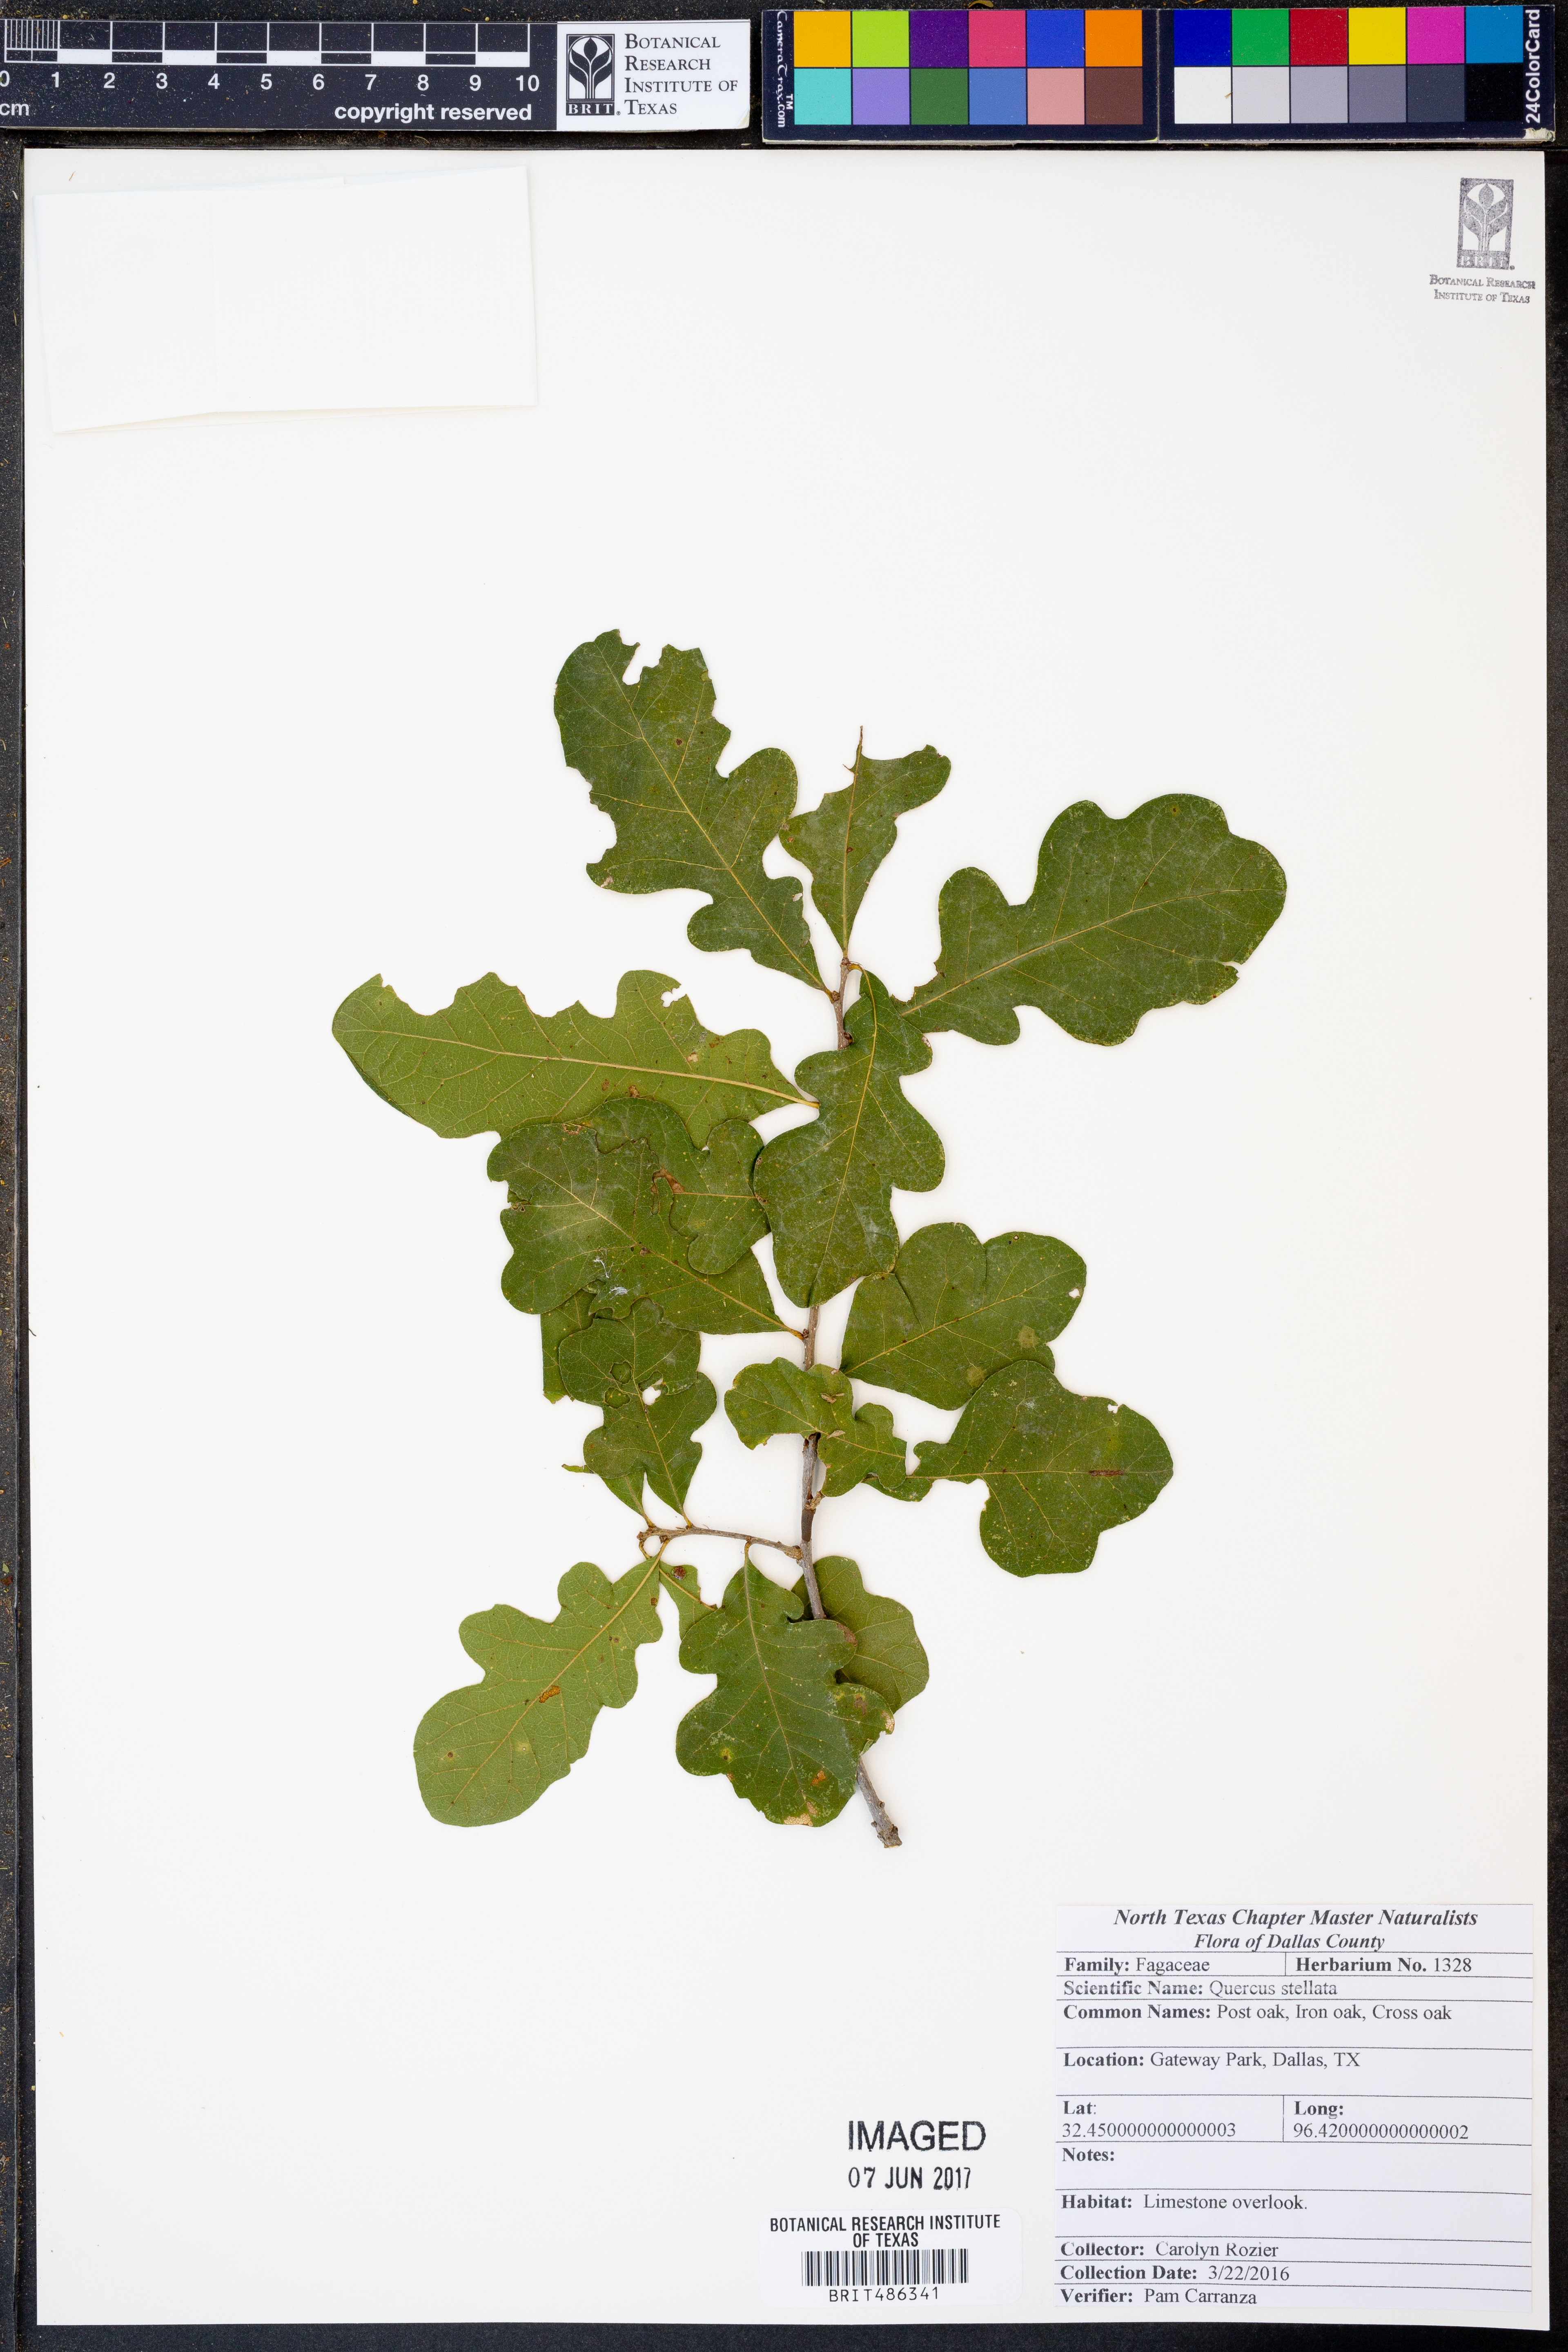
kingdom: Plantae
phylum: Tracheophyta
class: Magnoliopsida
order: Fagales
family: Fagaceae
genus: Quercus
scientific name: Quercus stellata
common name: Post oak
